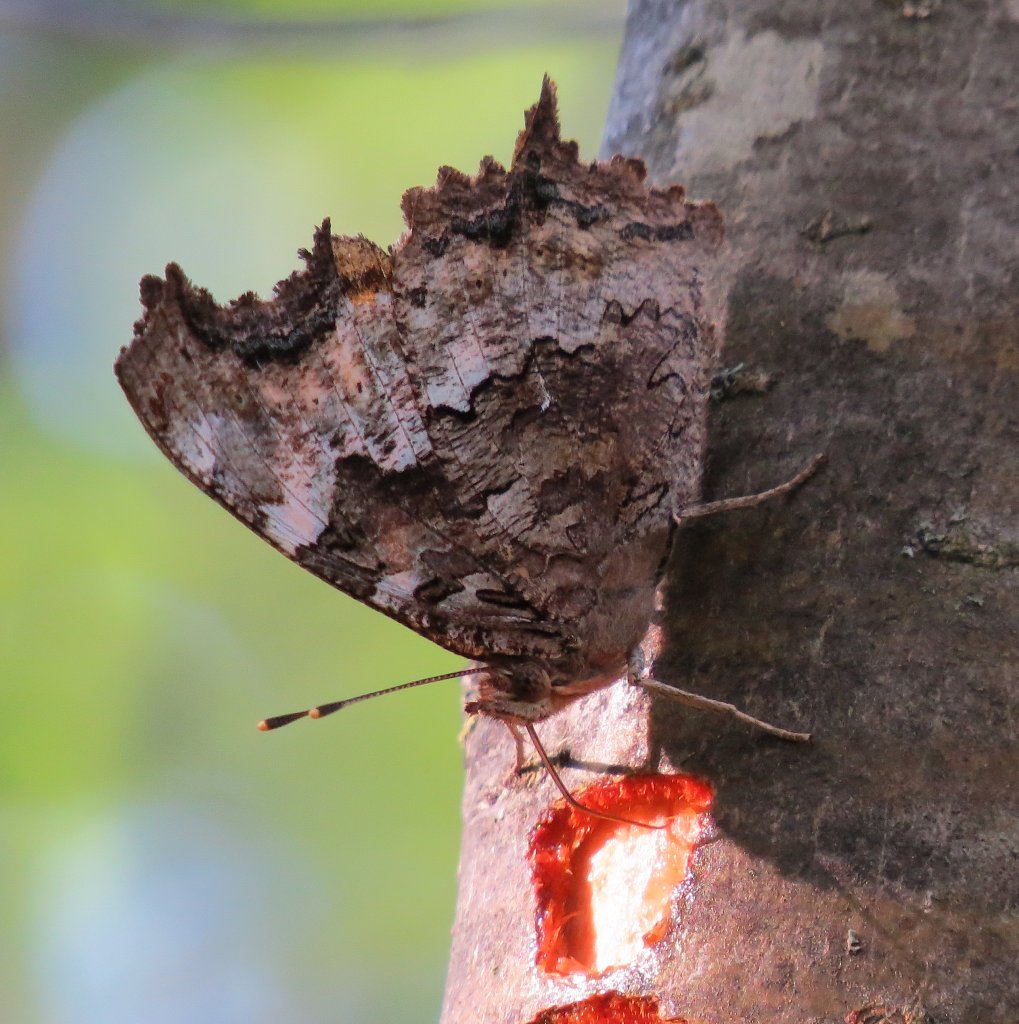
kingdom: Animalia
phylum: Arthropoda
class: Insecta
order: Lepidoptera
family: Nymphalidae
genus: Polygonia
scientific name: Polygonia vaualbum
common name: Compton Tortoiseshell
